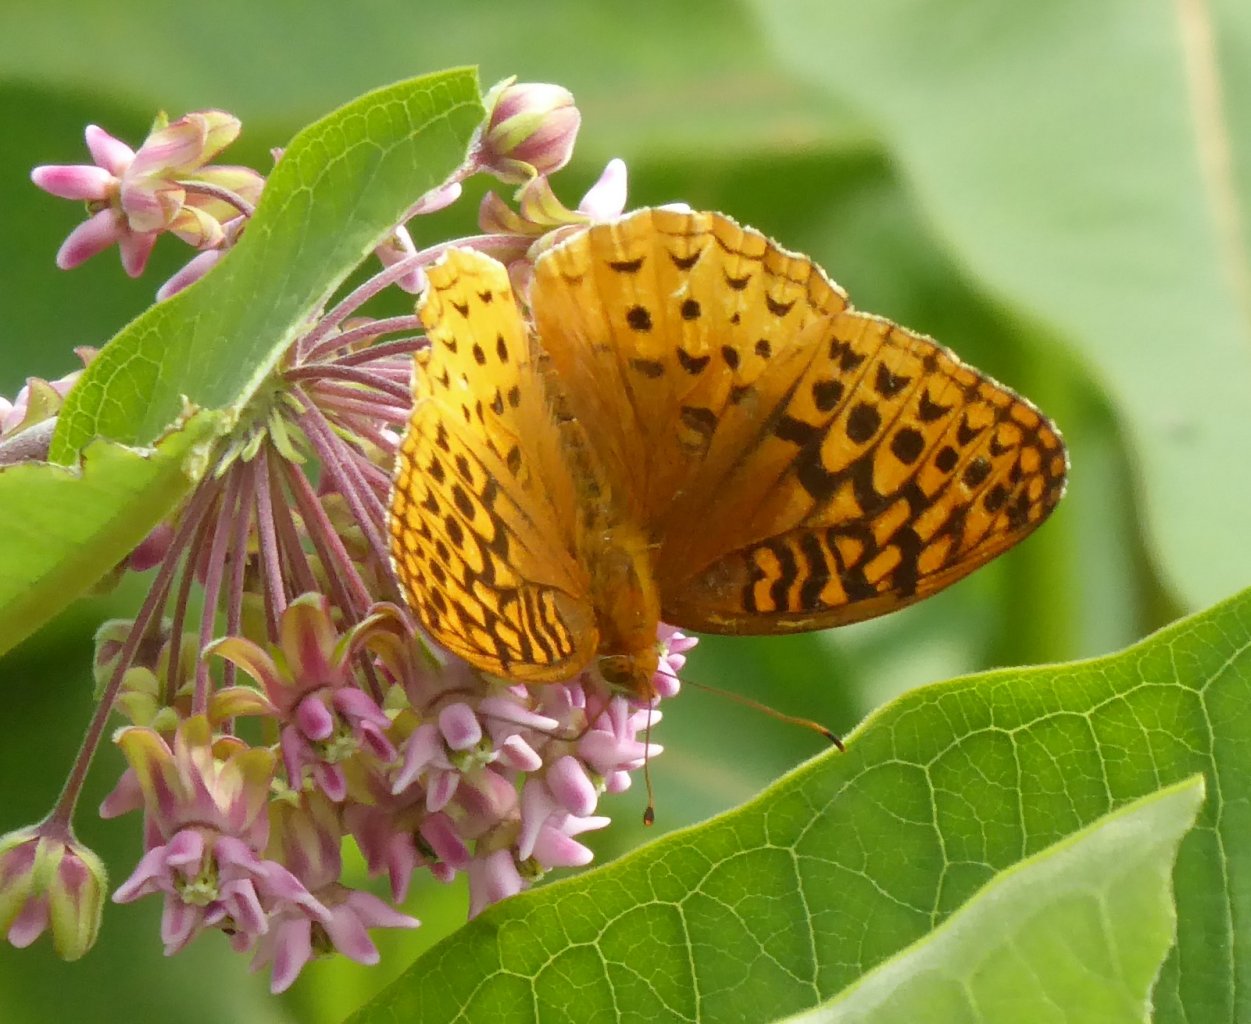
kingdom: Animalia
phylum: Arthropoda
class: Insecta
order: Lepidoptera
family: Nymphalidae
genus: Speyeria
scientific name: Speyeria cybele
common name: Great Spangled Fritillary
